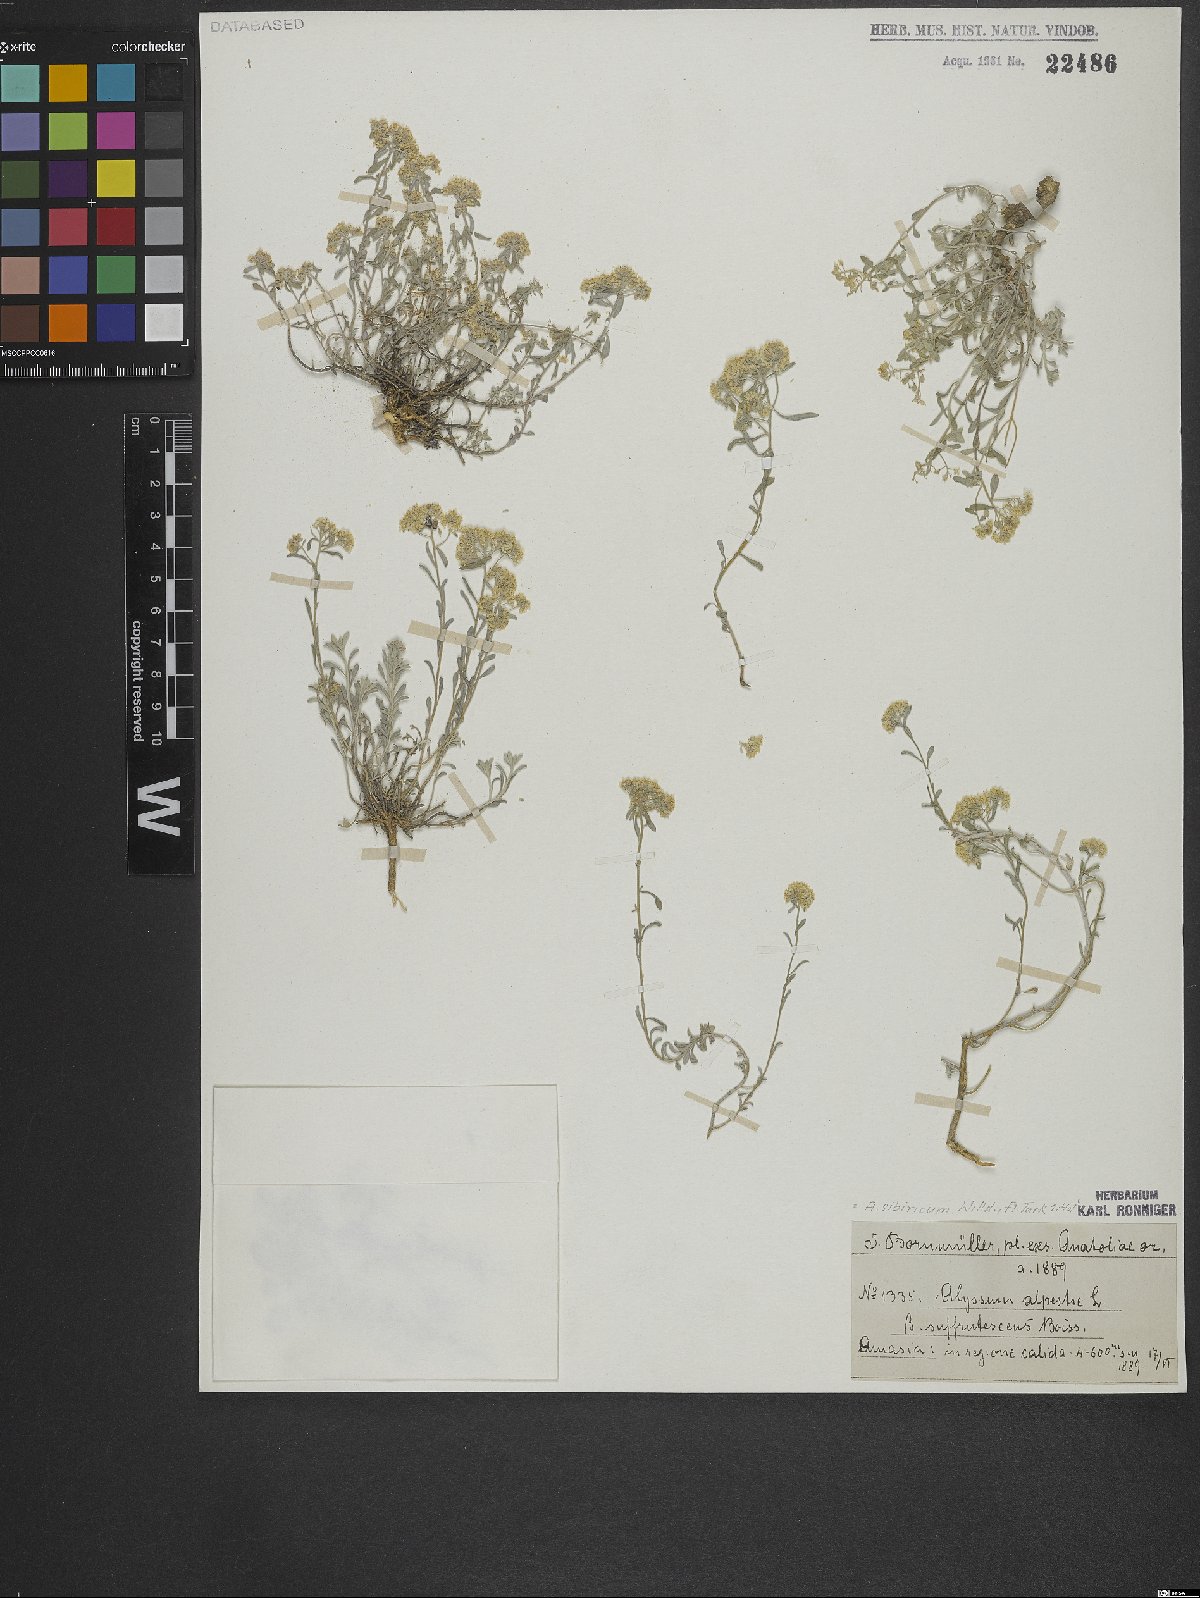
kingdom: Plantae
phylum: Tracheophyta
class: Magnoliopsida
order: Brassicales
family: Brassicaceae
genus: Odontarrhena
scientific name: Odontarrhena sibirica
